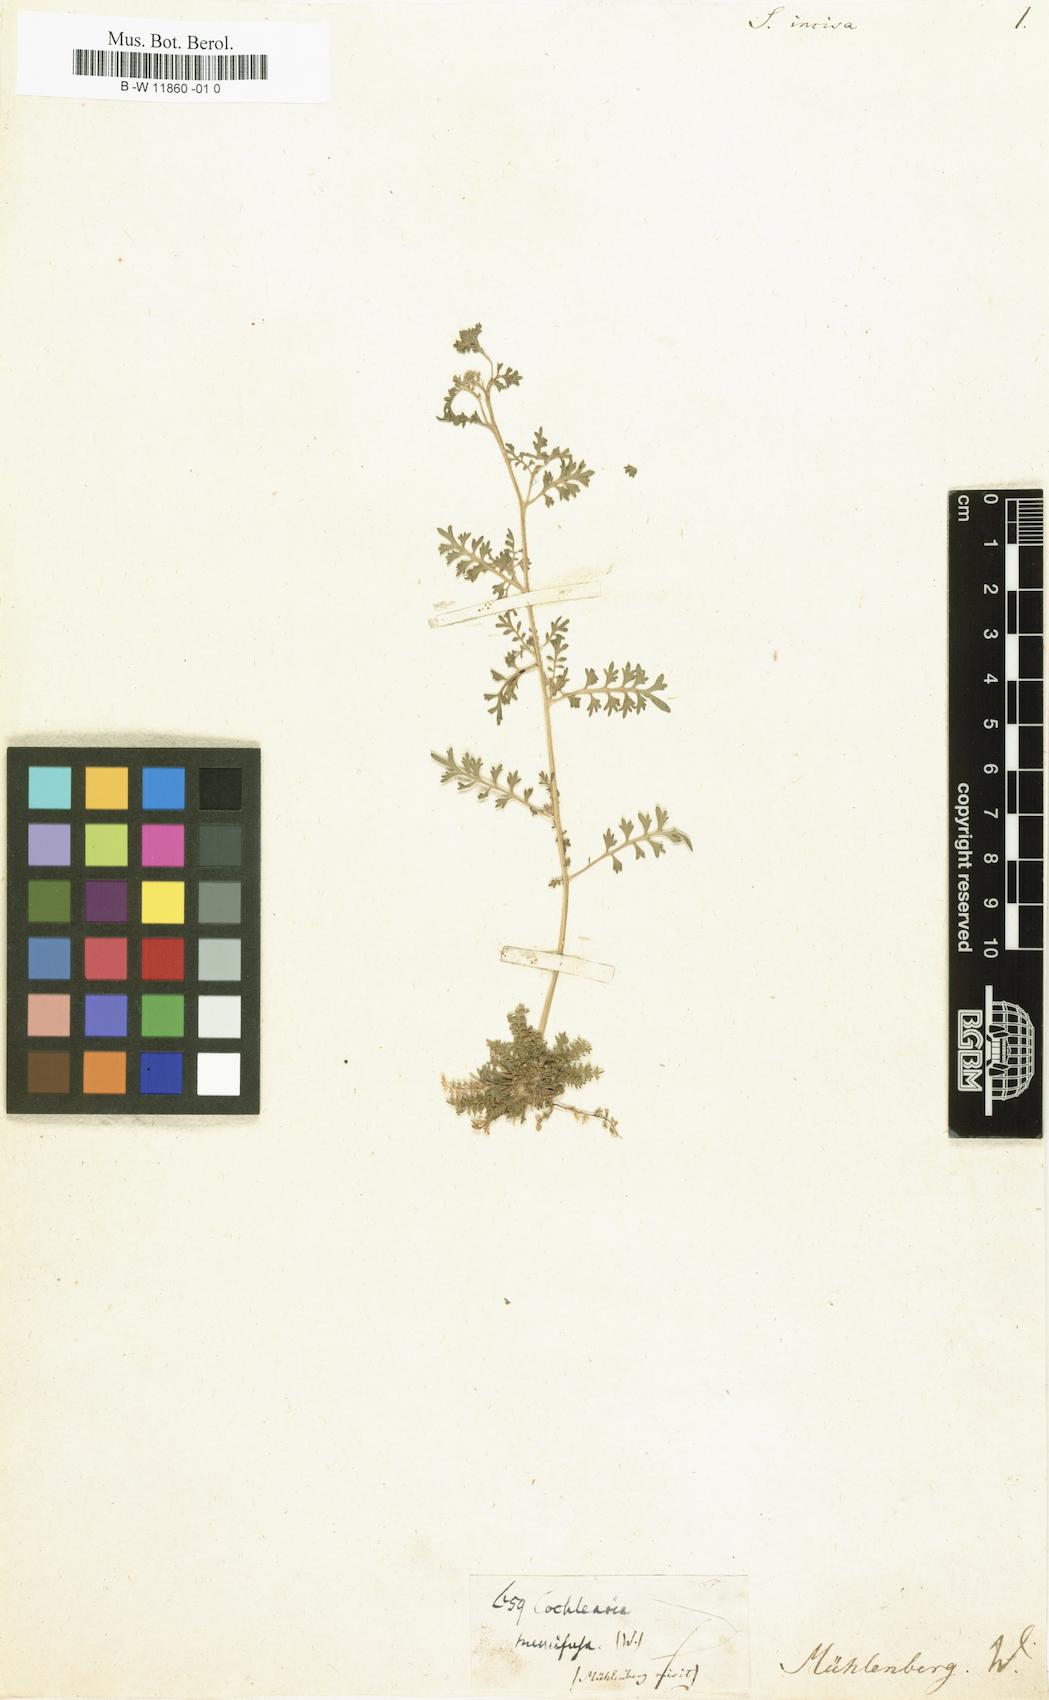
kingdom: Plantae
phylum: Tracheophyta
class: Magnoliopsida
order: Brassicales
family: Brassicaceae
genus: Lepidium
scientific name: Lepidium
